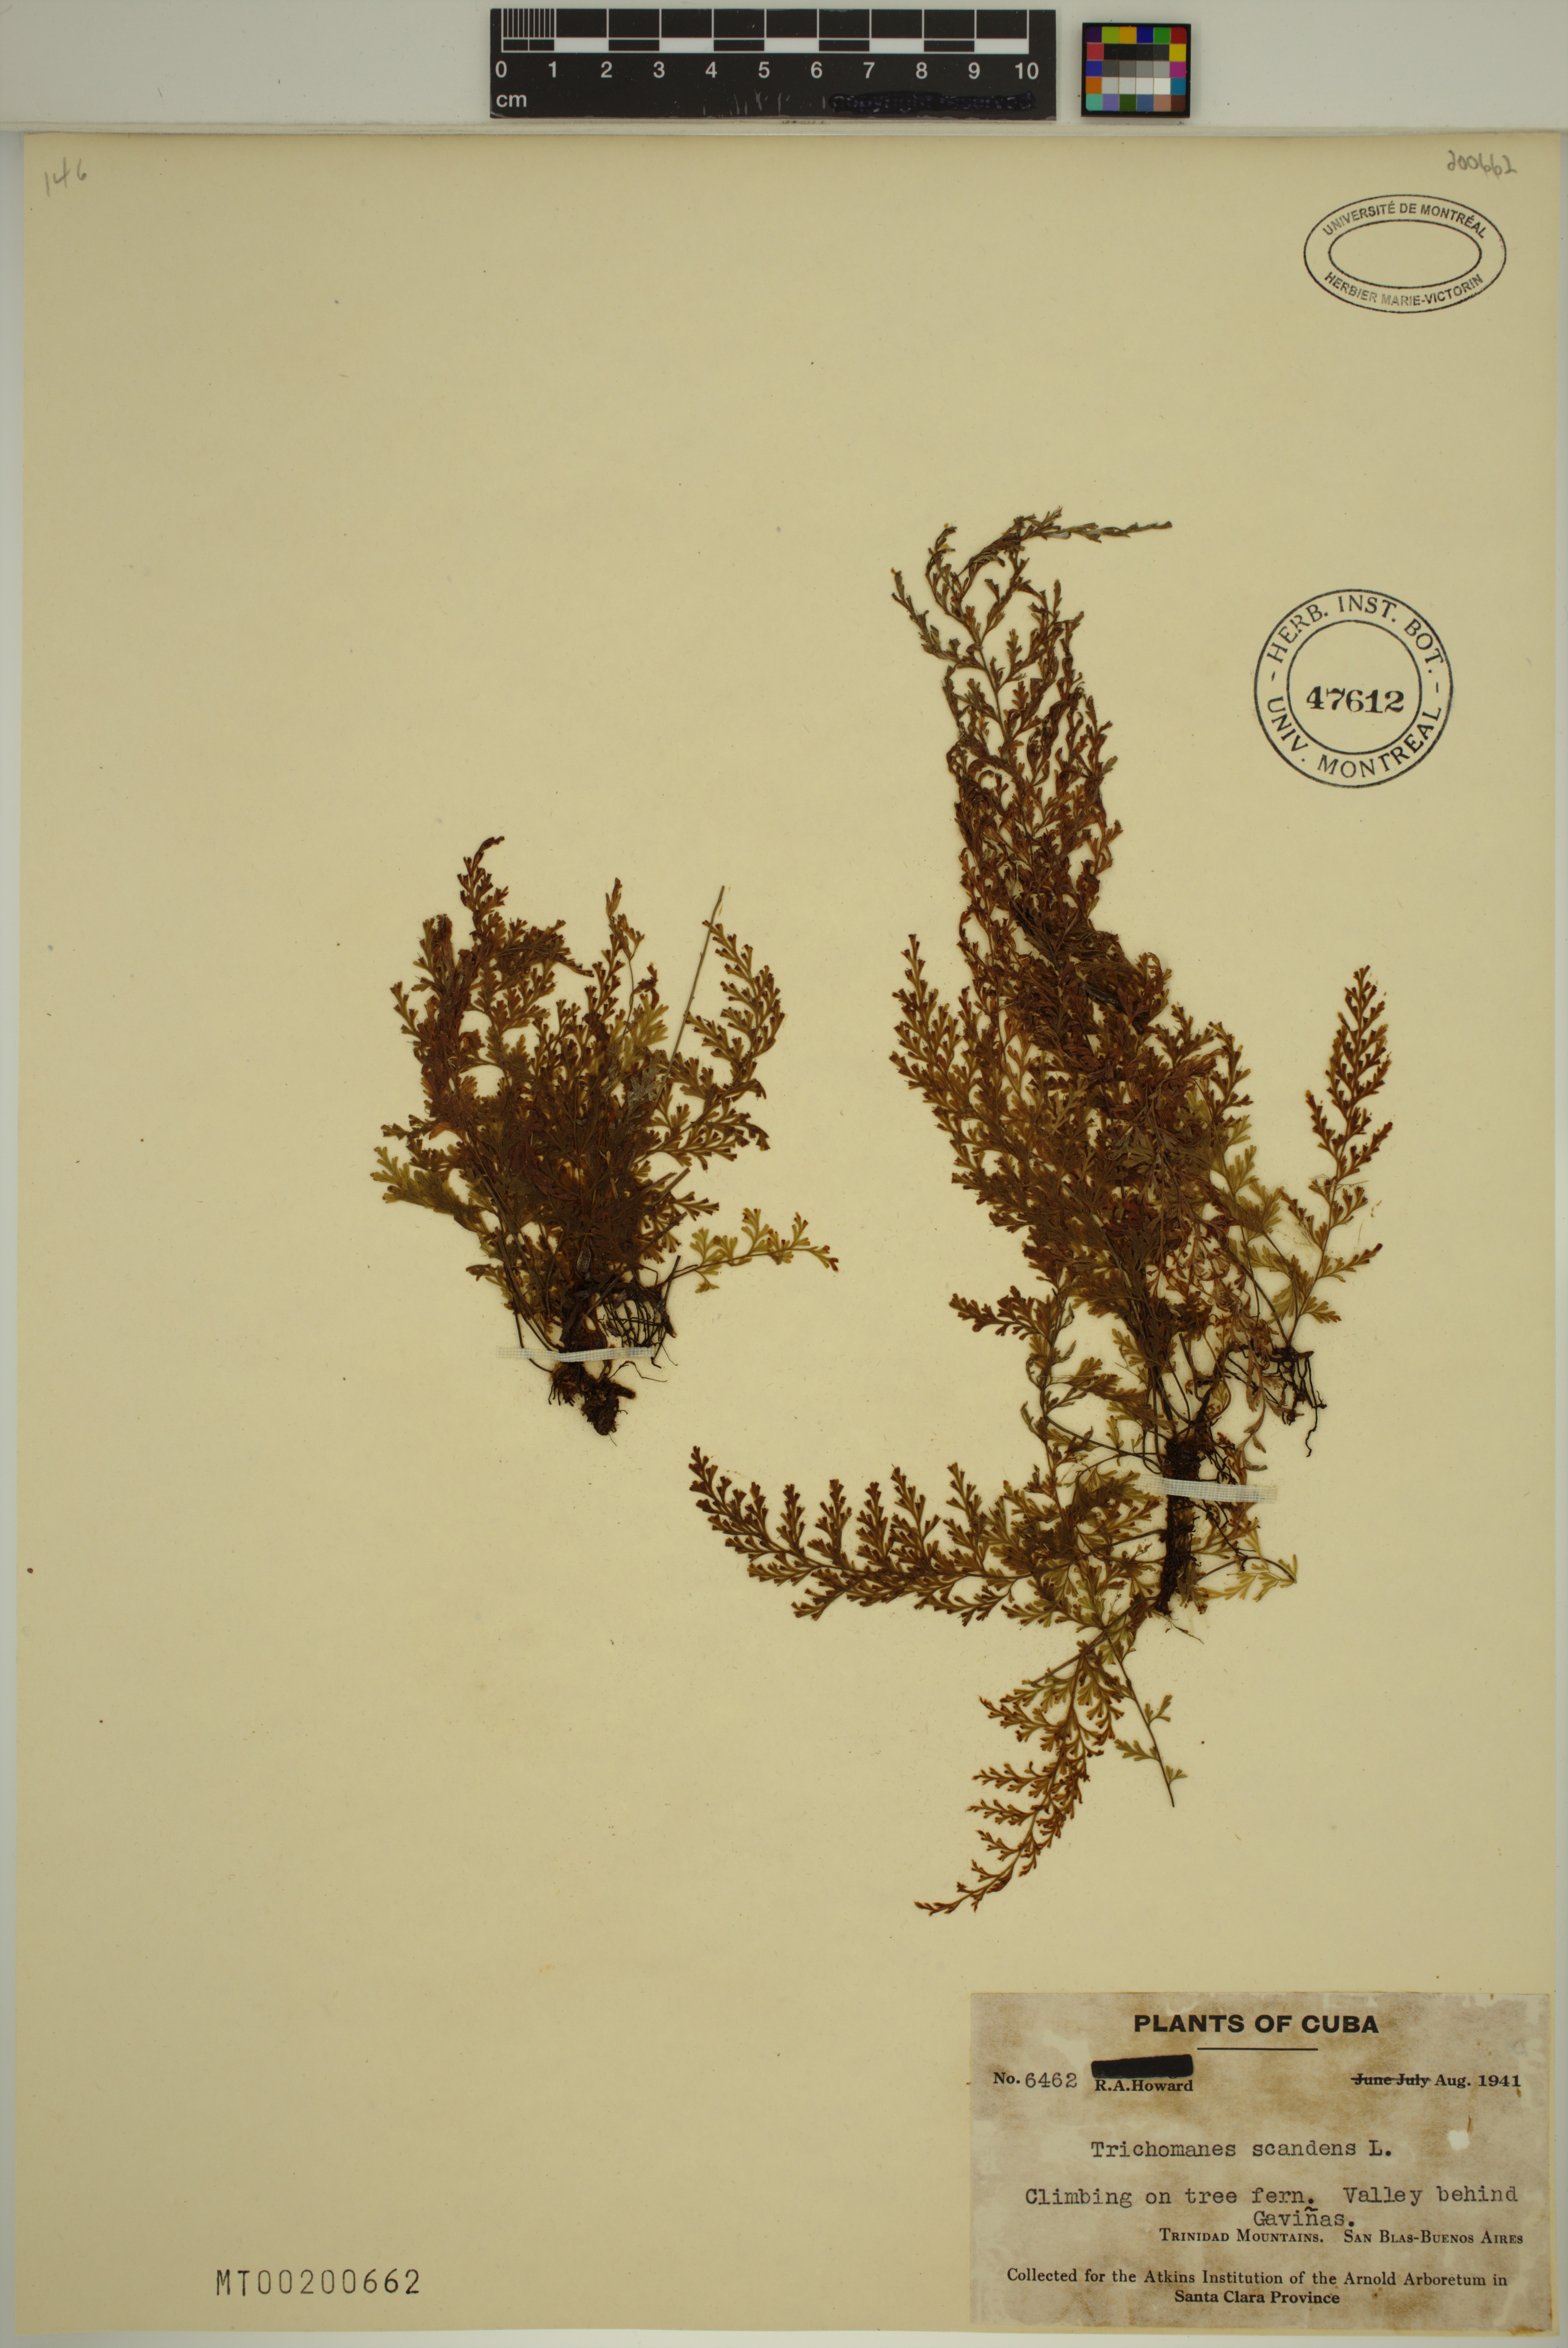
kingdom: Plantae
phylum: Tracheophyta
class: Polypodiopsida
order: Hymenophyllales
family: Hymenophyllaceae
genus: Trichomanes
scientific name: Trichomanes scandens
